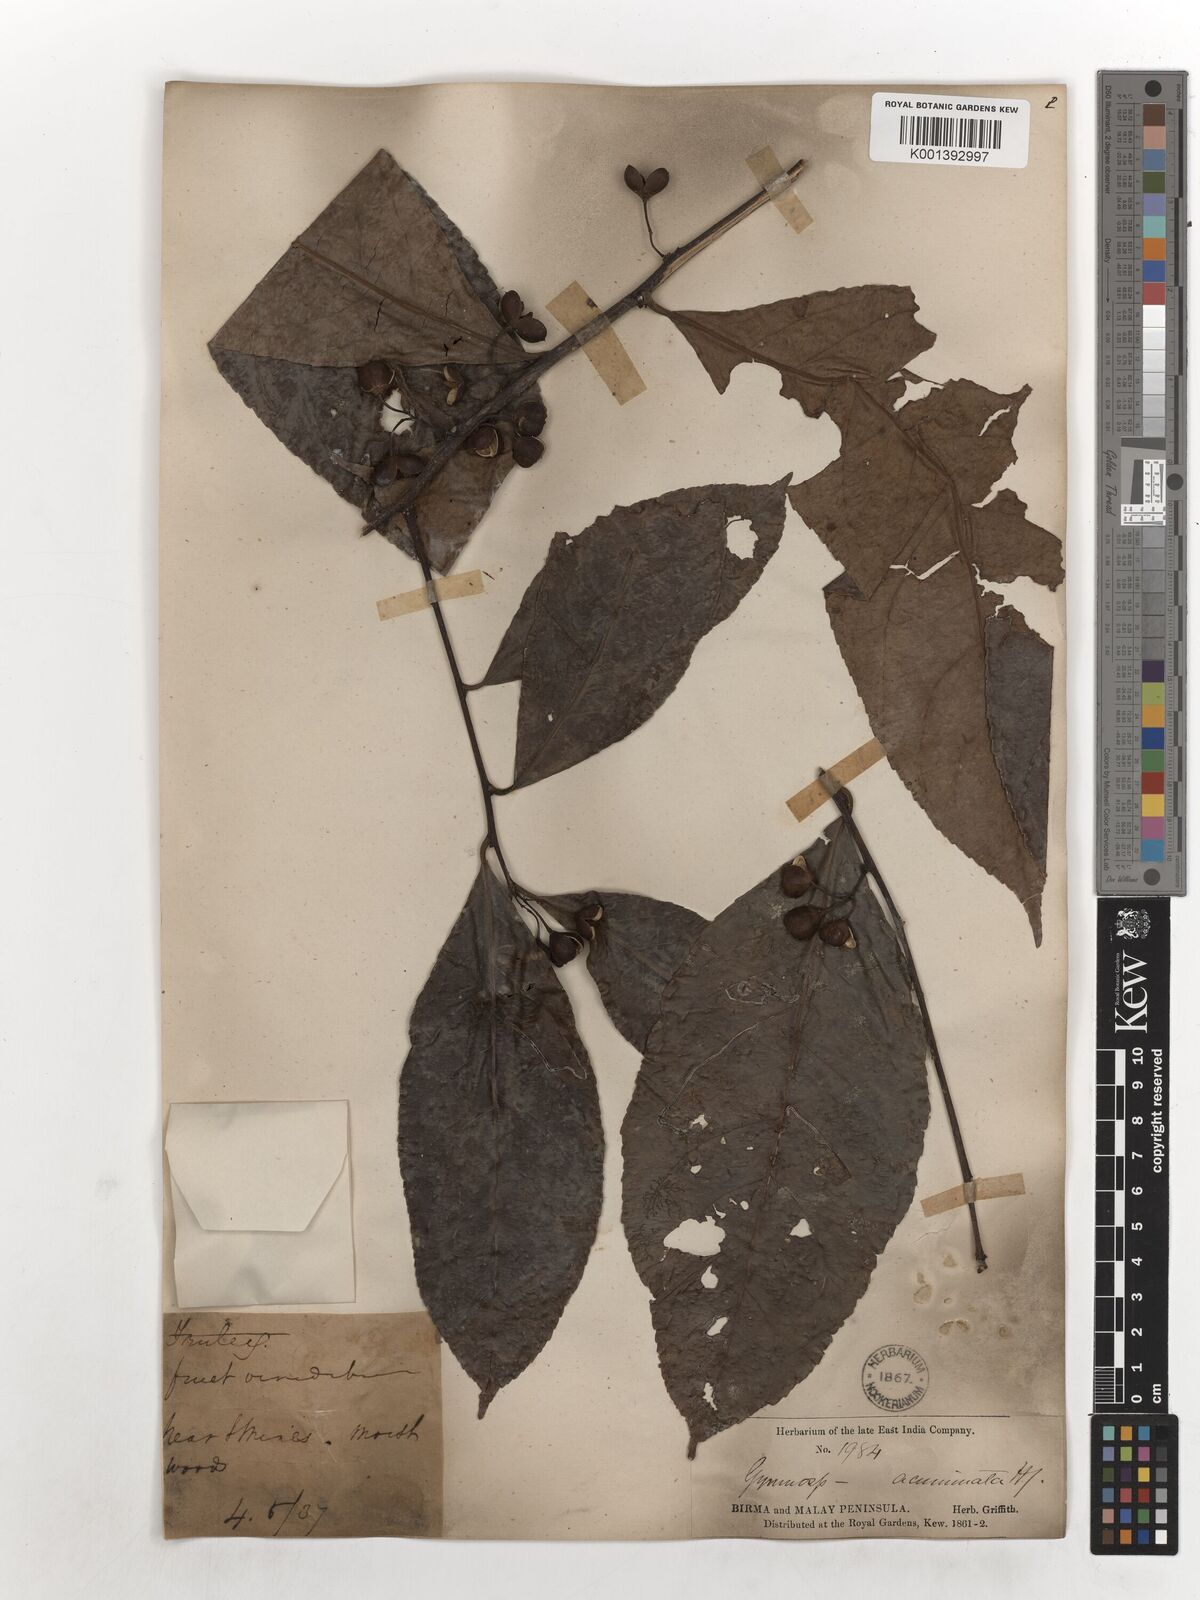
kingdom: Plantae
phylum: Tracheophyta
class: Magnoliopsida
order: Celastrales
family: Celastraceae
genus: Gymnosporia
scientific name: Gymnosporia oxyphylla
